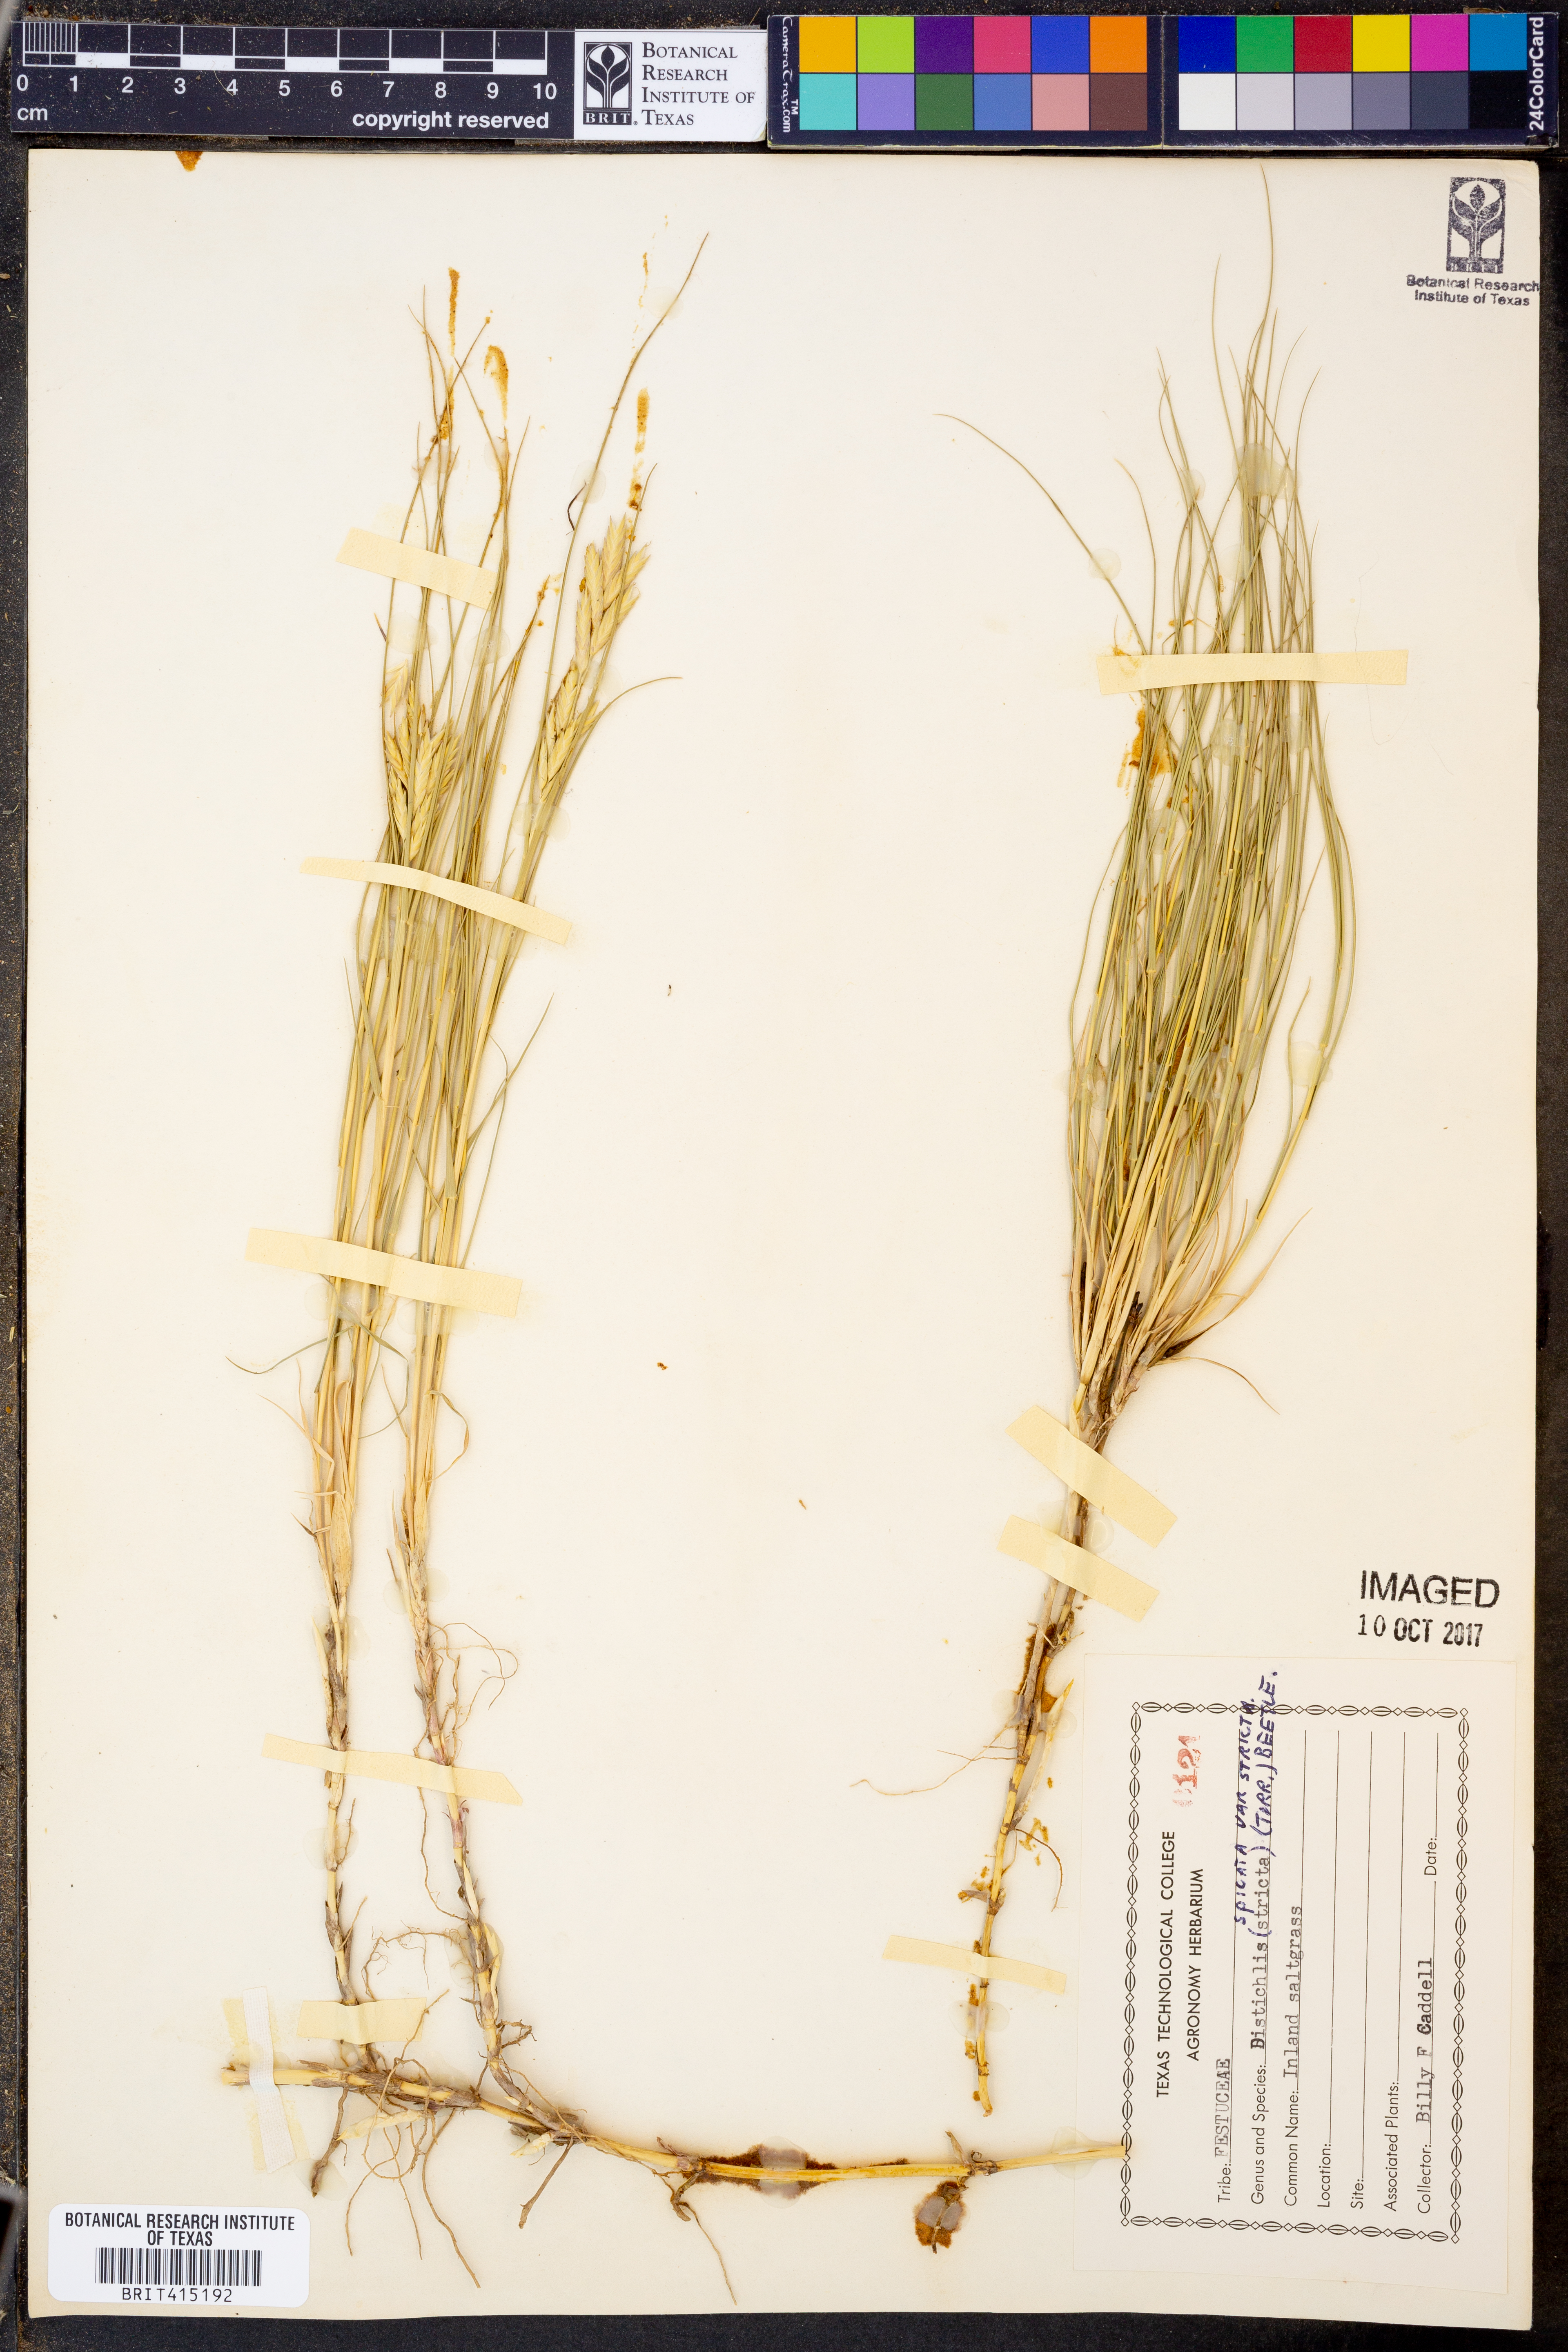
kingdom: Plantae
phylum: Tracheophyta
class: Liliopsida
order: Poales
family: Poaceae
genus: Distichlis
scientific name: Distichlis spicata
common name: Saltgrass
